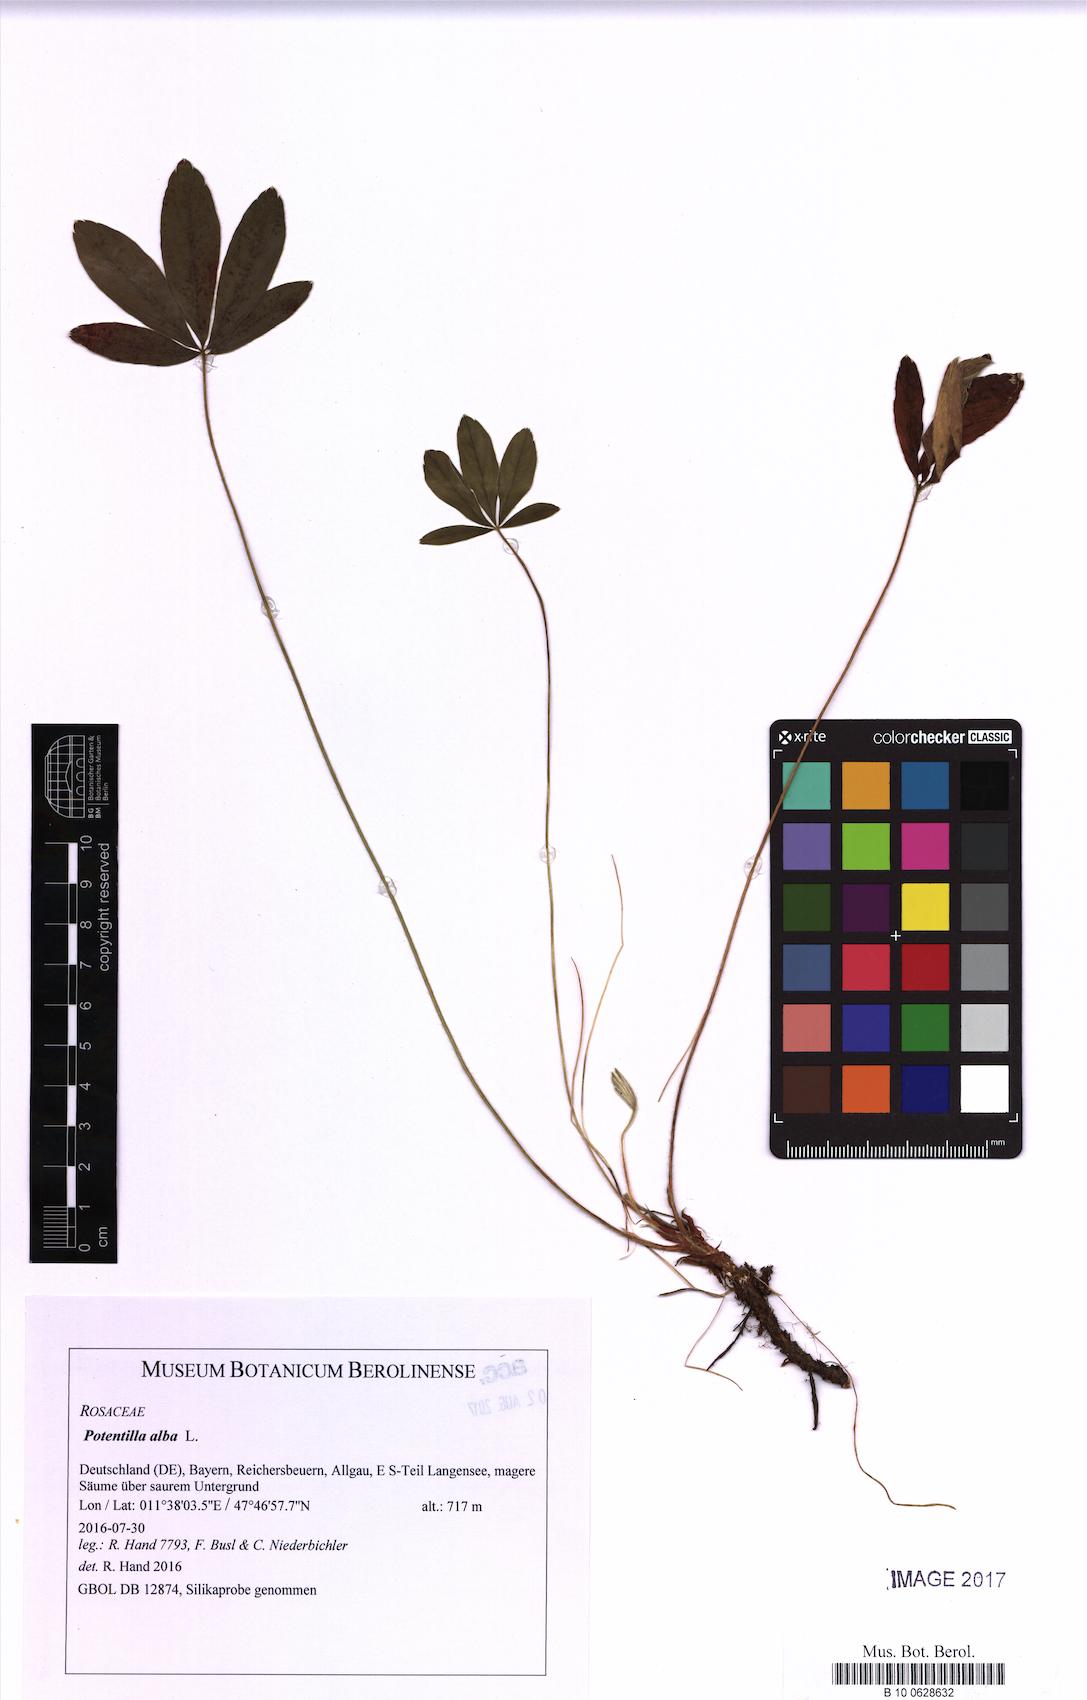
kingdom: Plantae
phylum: Tracheophyta
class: Magnoliopsida
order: Rosales
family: Rosaceae
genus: Potentilla
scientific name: Potentilla alba
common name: White cinquefoil
